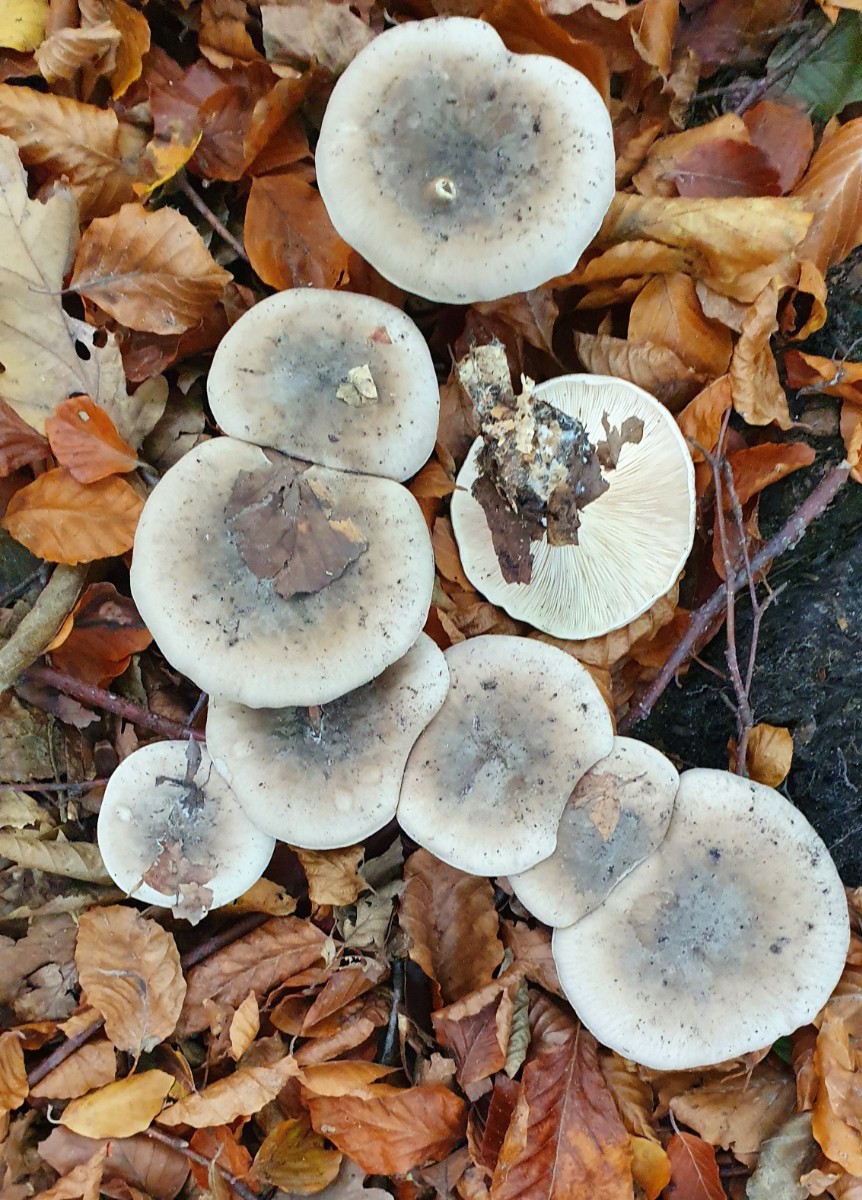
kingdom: Fungi
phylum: Basidiomycota
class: Agaricomycetes
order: Agaricales
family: Tricholomataceae
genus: Clitocybe
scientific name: Clitocybe nebularis
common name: tåge-tragthat
